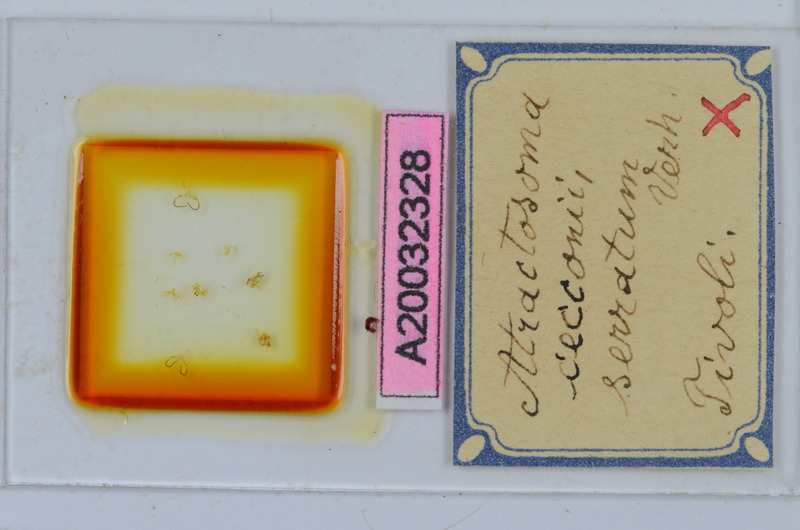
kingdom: Animalia
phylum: Arthropoda
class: Diplopoda
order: Chordeumatida
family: Craspedosomatidae
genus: Atractosoma
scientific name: Atractosoma cecconii
